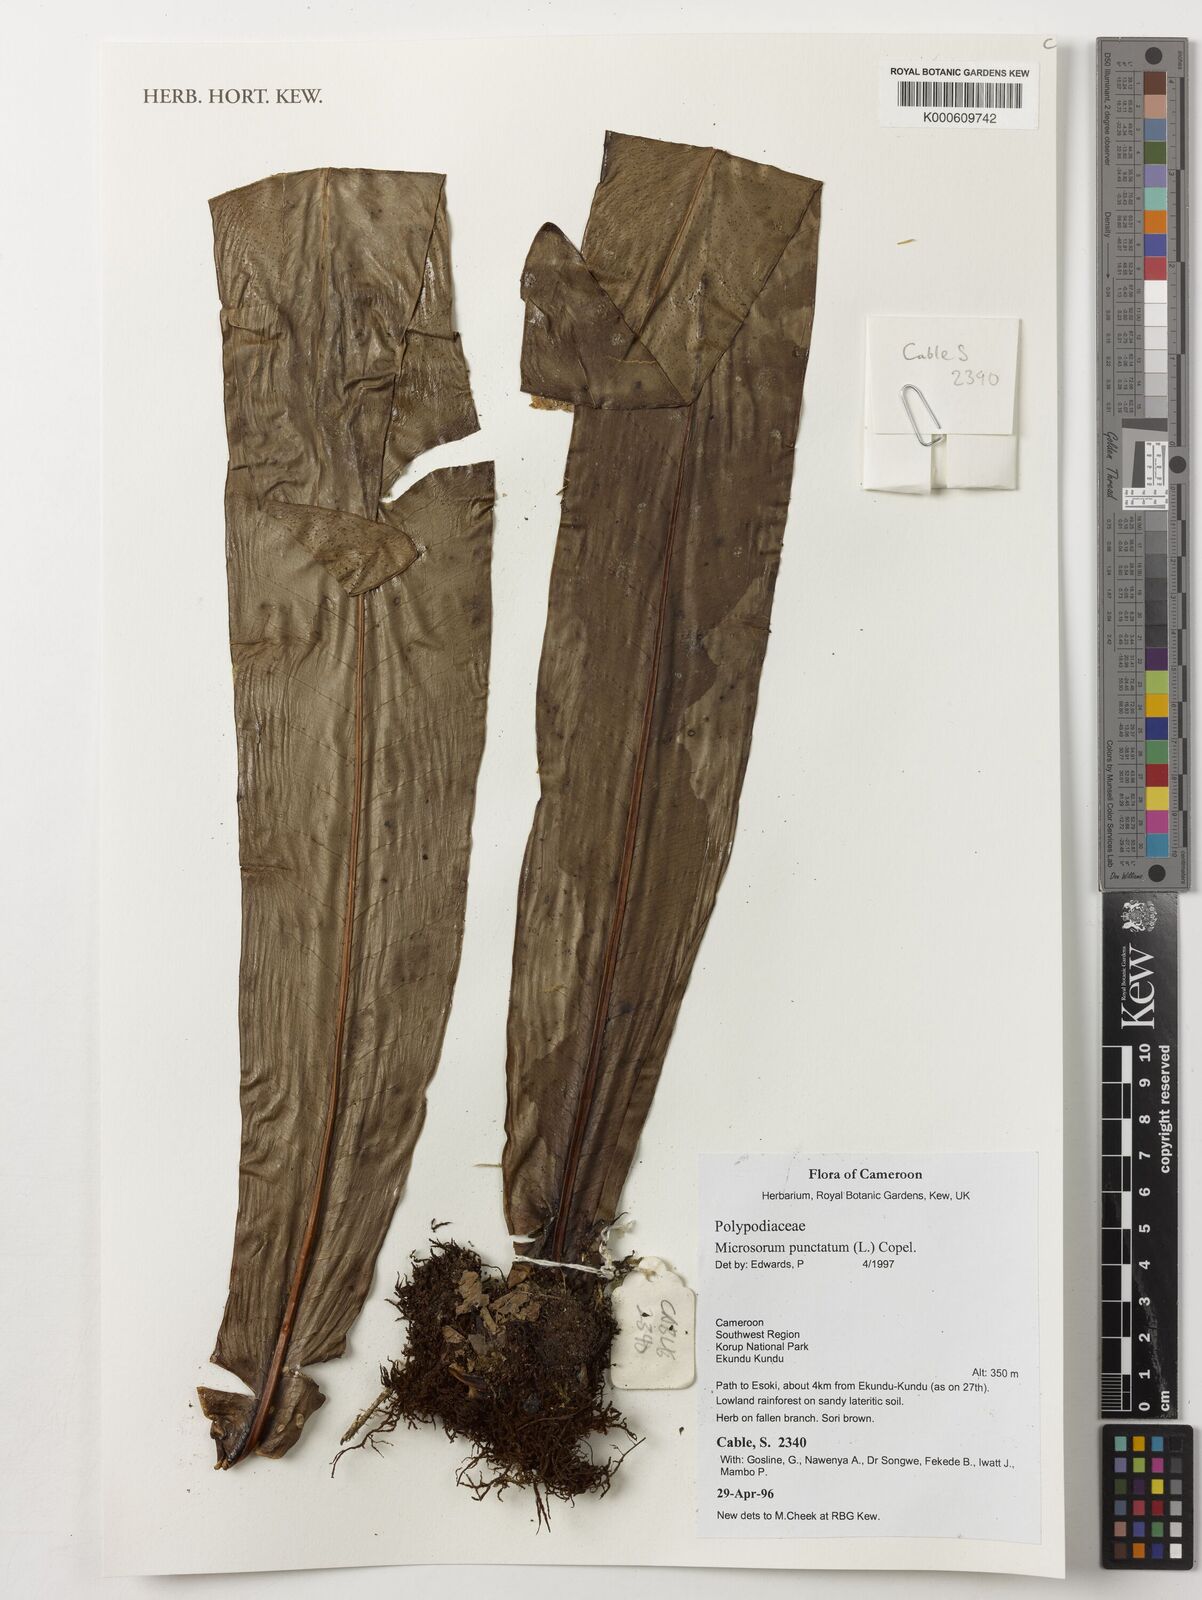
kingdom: Plantae
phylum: Tracheophyta
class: Polypodiopsida
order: Polypodiales
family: Polypodiaceae
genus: Microsorum
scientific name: Microsorum
